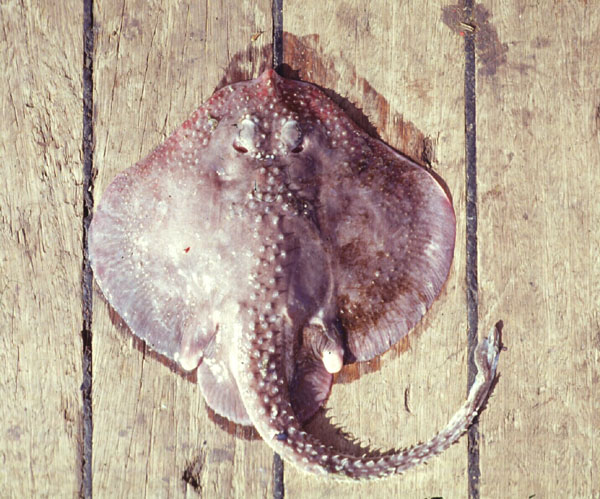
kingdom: Animalia
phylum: Chordata
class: Elasmobranchii
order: Rajiformes
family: Rajidae
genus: Rajella
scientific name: Rajella caudaspinosa
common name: Munchkin skate
